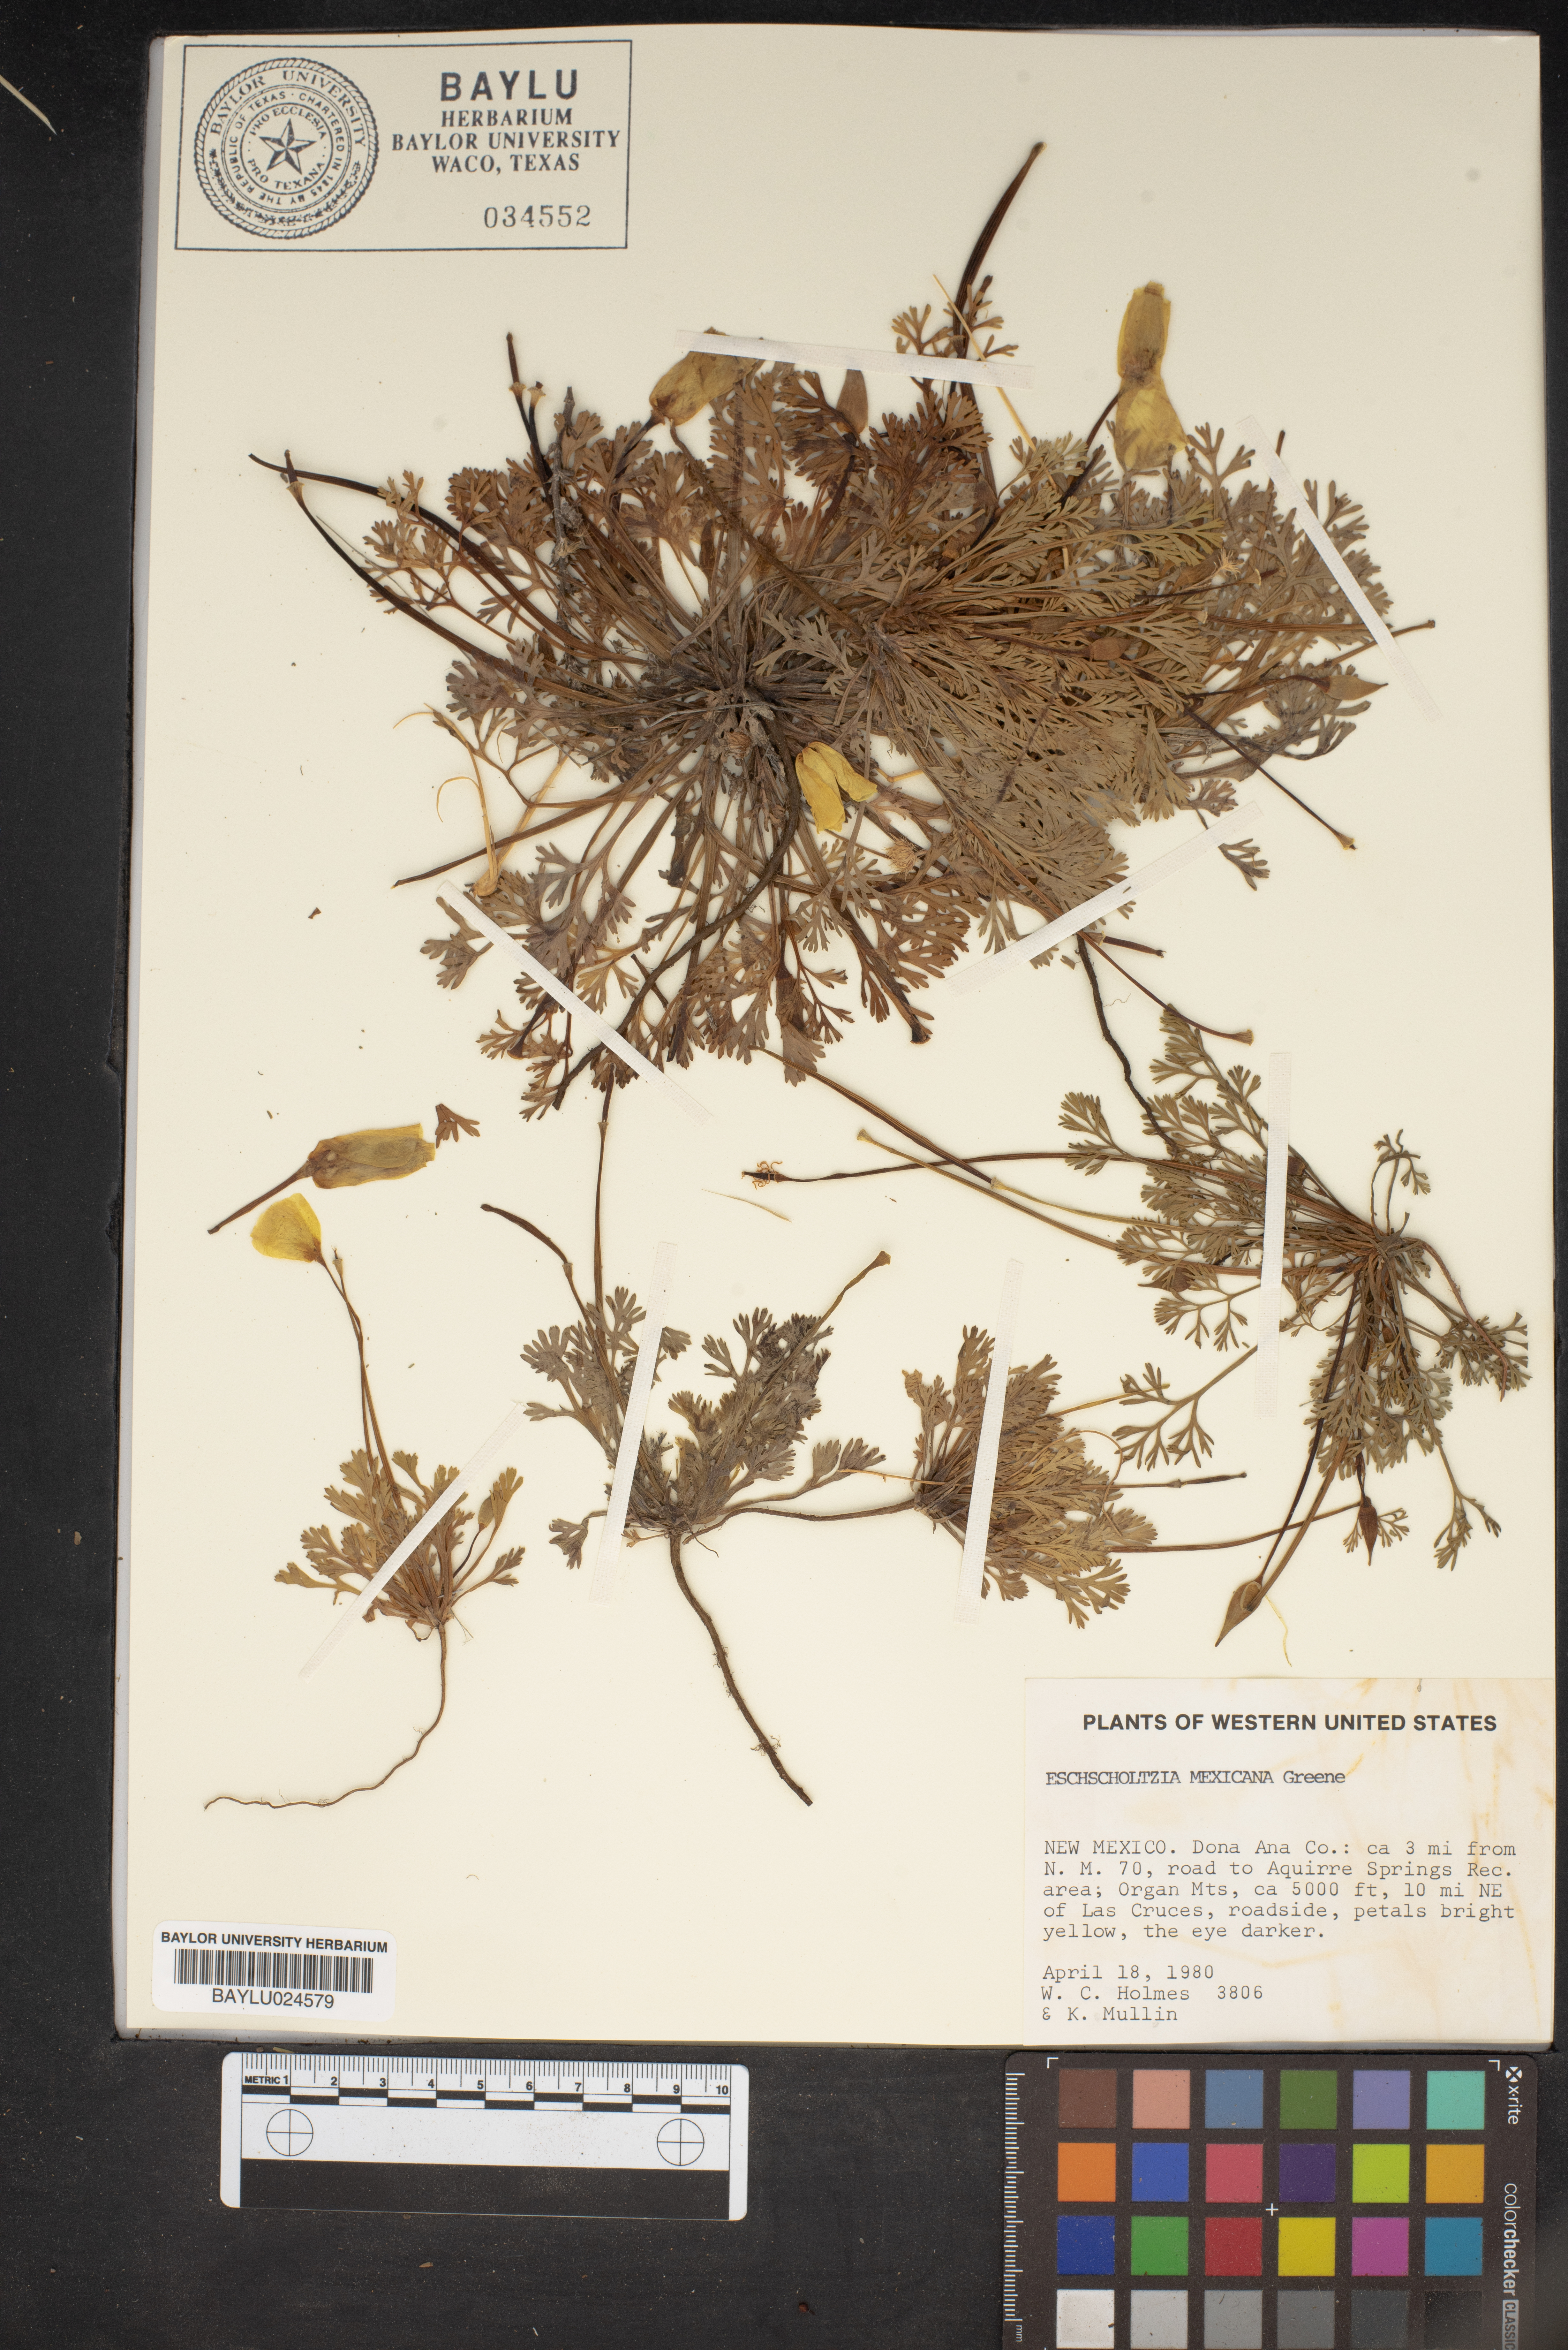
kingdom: Plantae
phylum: Tracheophyta
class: Magnoliopsida
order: Ranunculales
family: Papaveraceae
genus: Eschscholzia
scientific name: Eschscholzia californica
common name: California poppy
